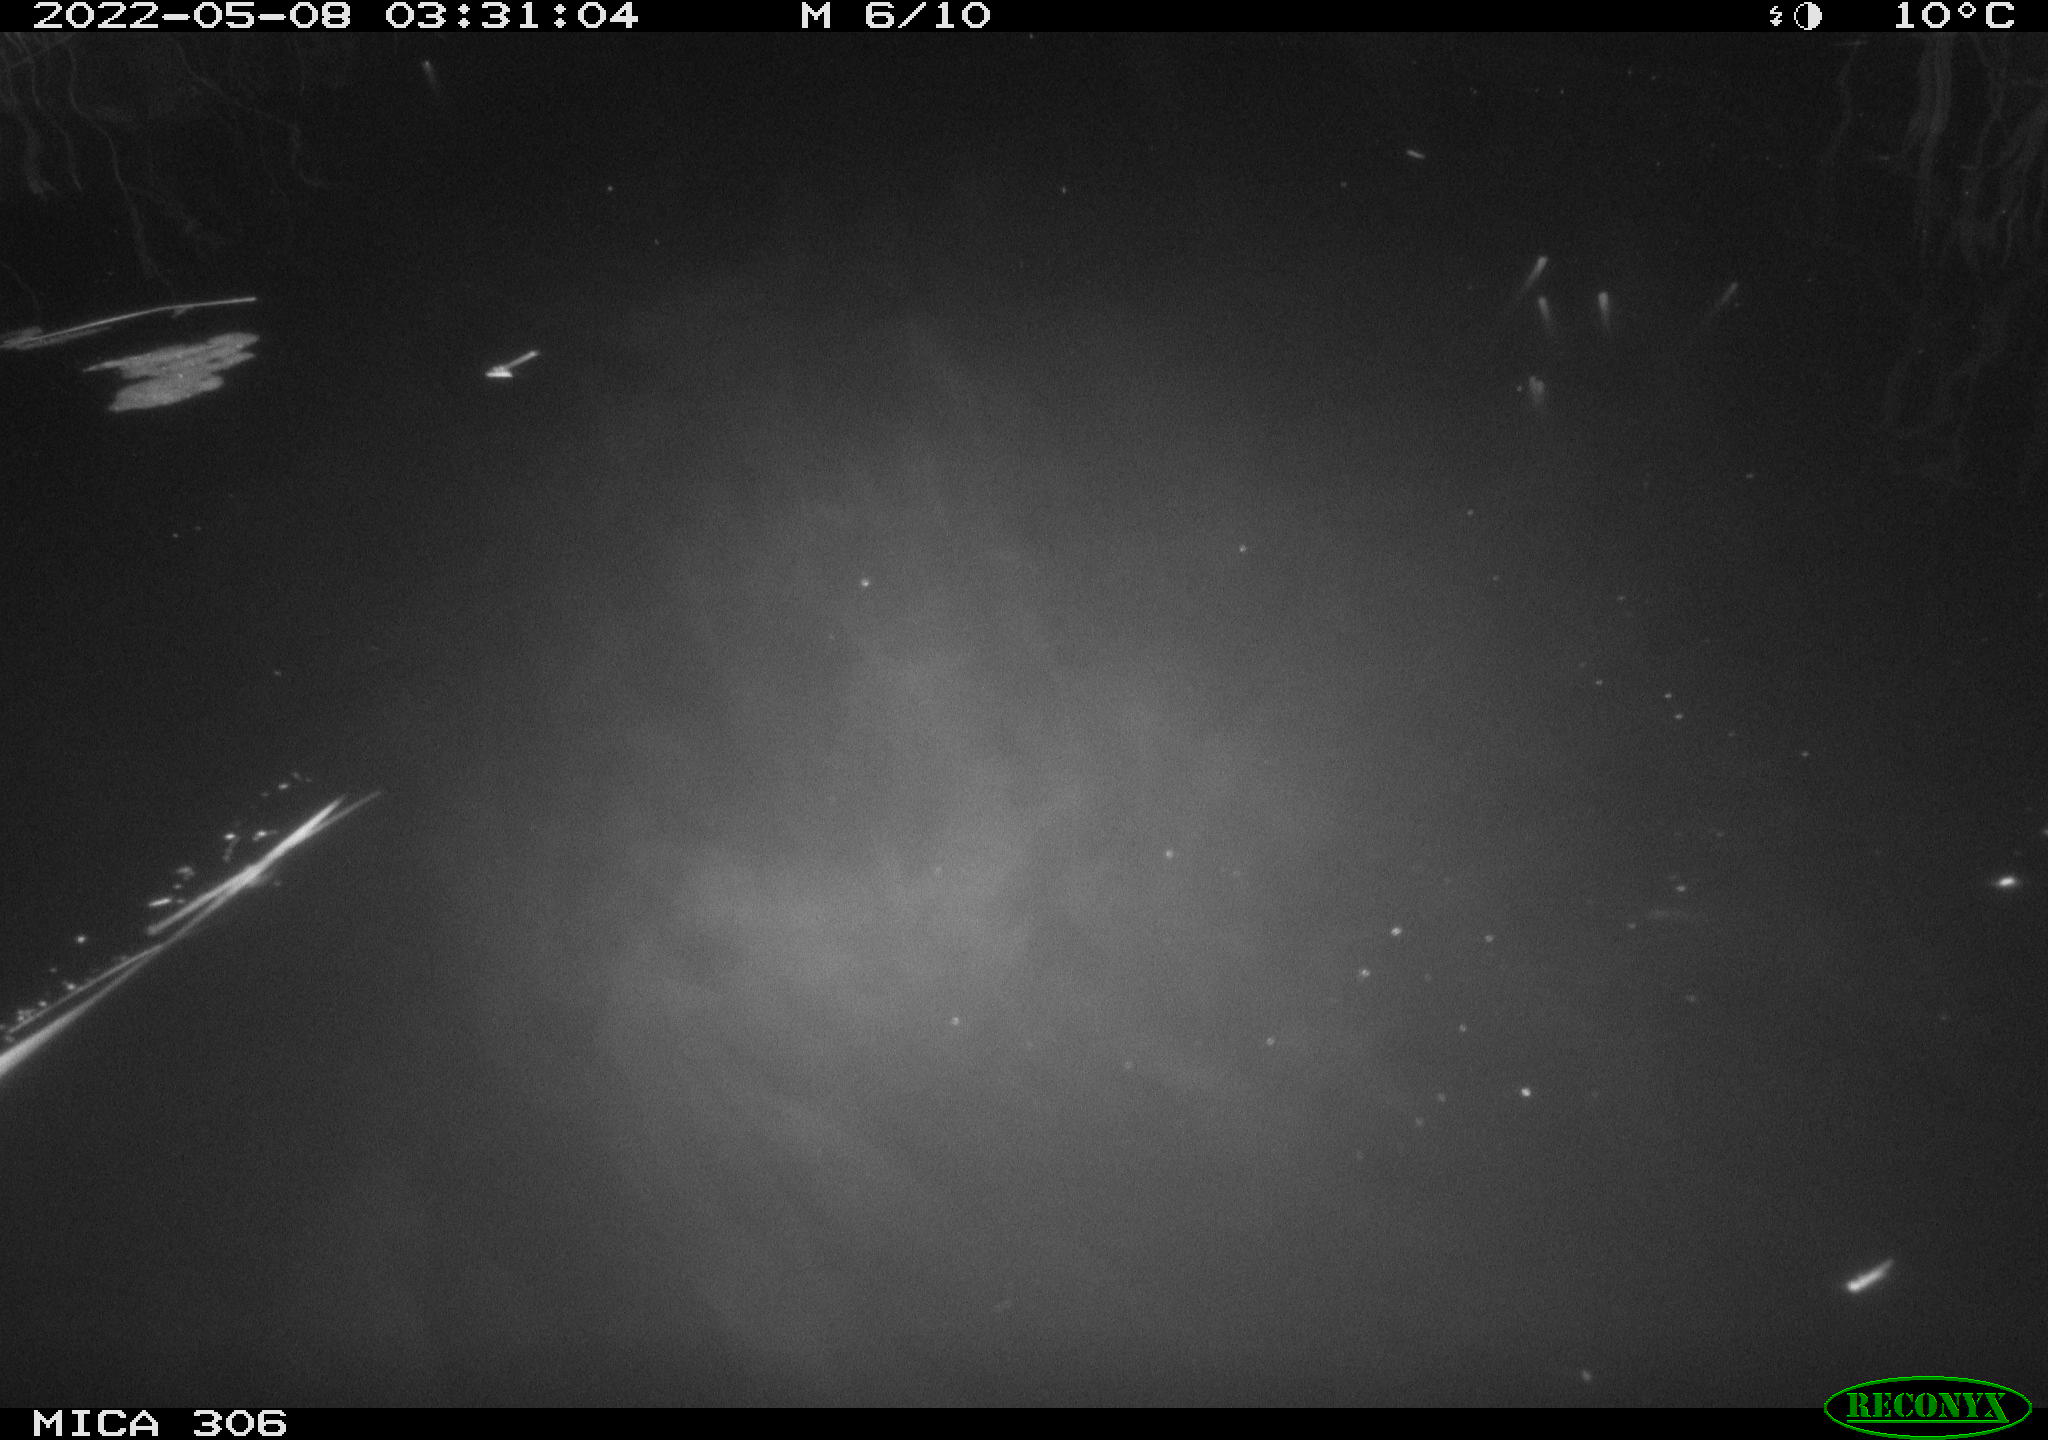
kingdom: Animalia
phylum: Chordata
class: Mammalia
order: Rodentia
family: Muridae
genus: Rattus
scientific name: Rattus norvegicus
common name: Brown rat
